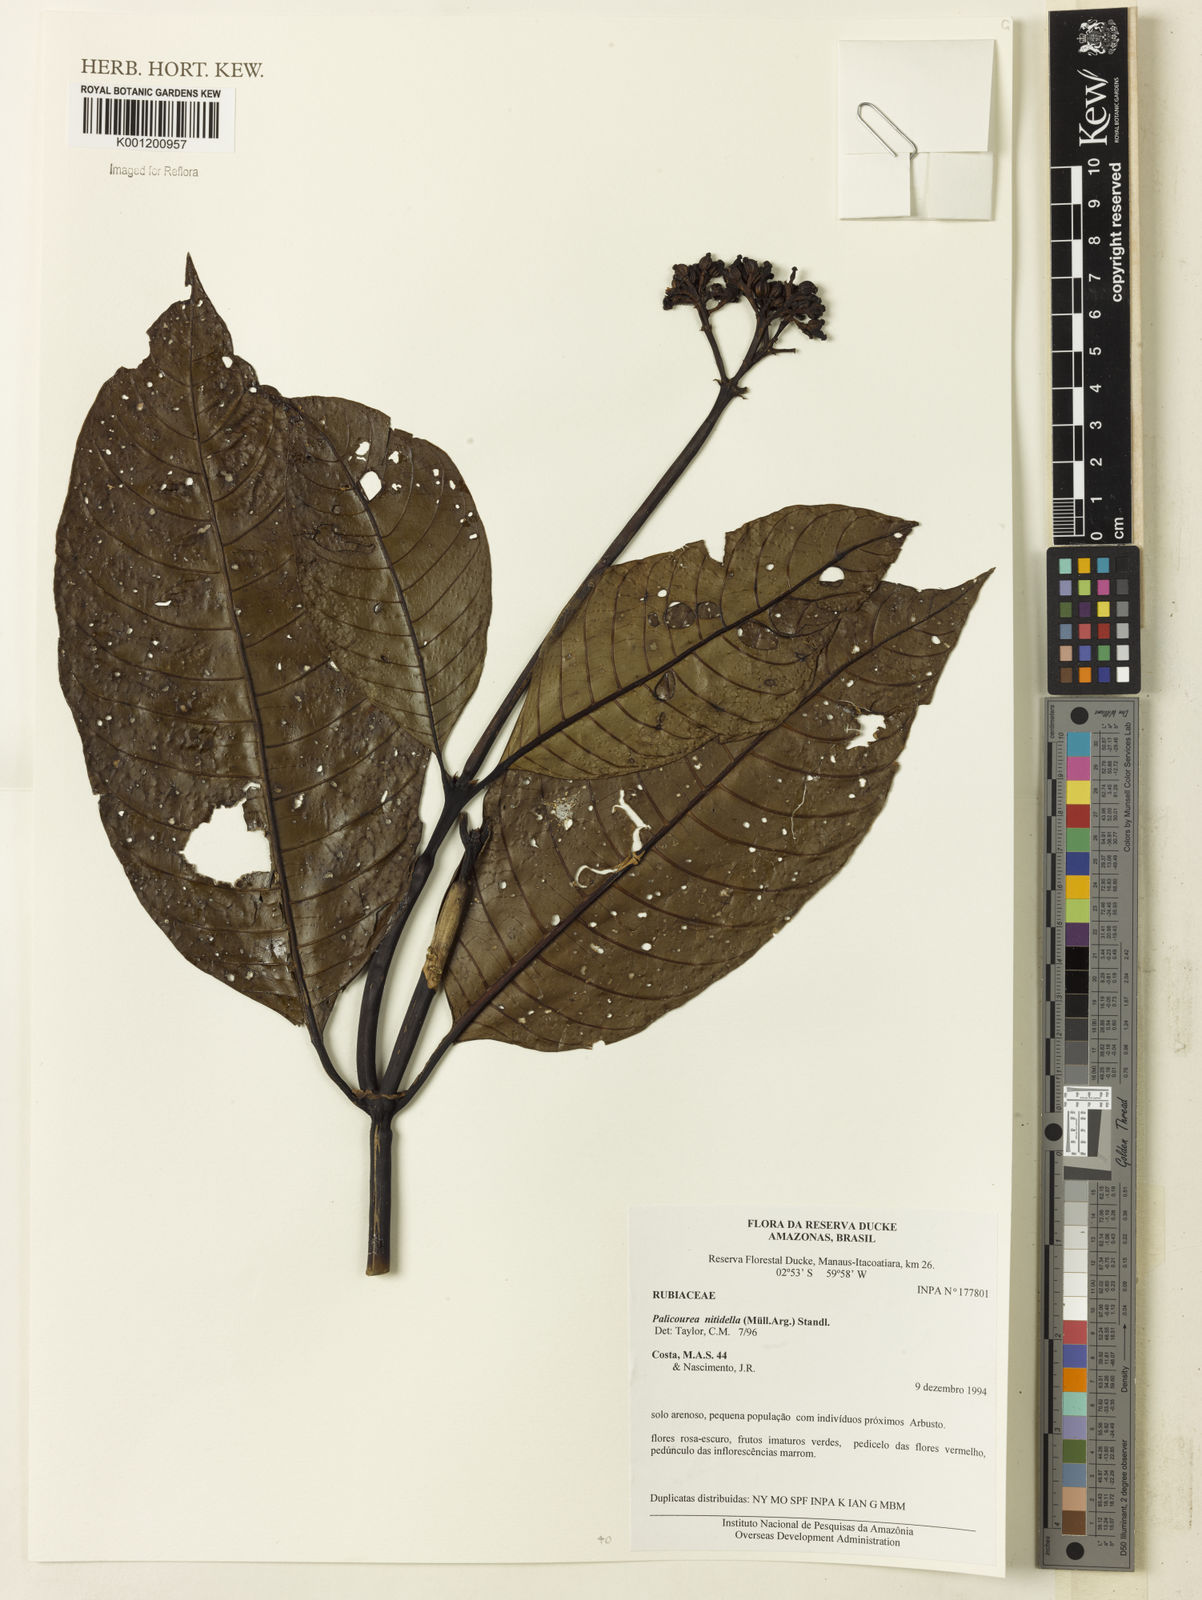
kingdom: Plantae
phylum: Tracheophyta
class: Magnoliopsida
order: Gentianales
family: Rubiaceae
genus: Palicourea
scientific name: Palicourea
